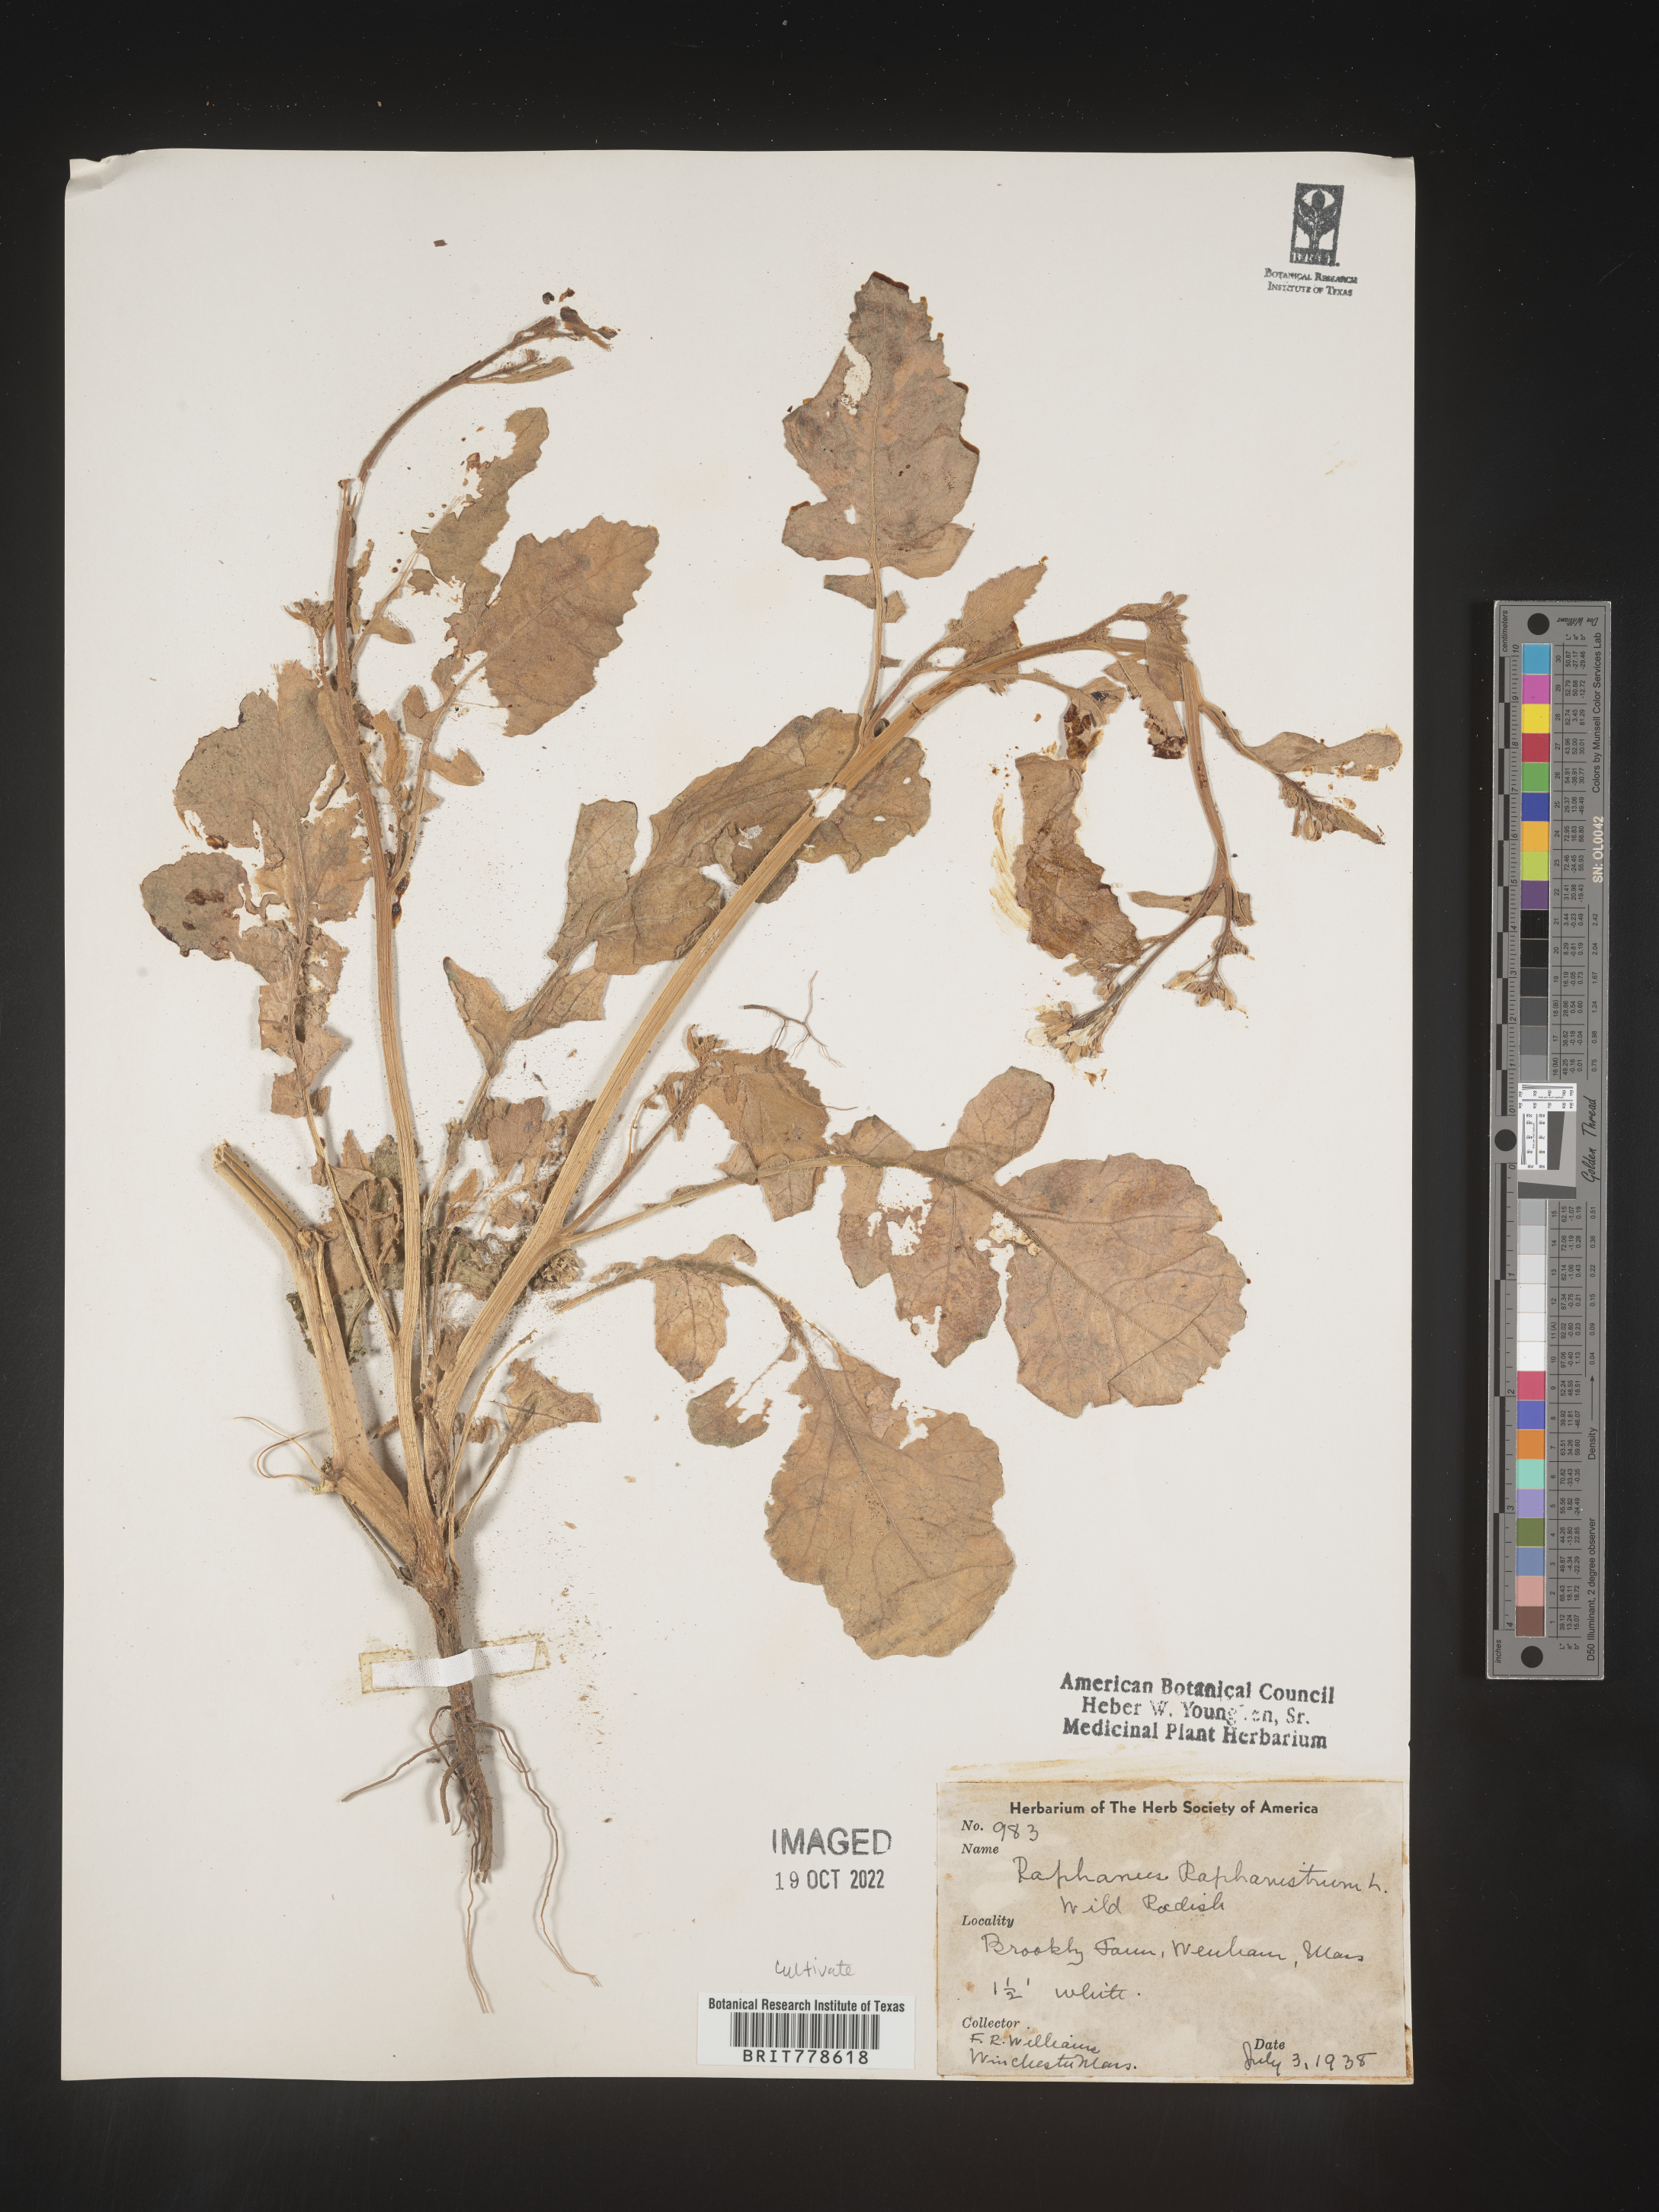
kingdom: Plantae
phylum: Tracheophyta
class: Magnoliopsida
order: Brassicales
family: Brassicaceae
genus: Raphanus
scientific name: Raphanus
